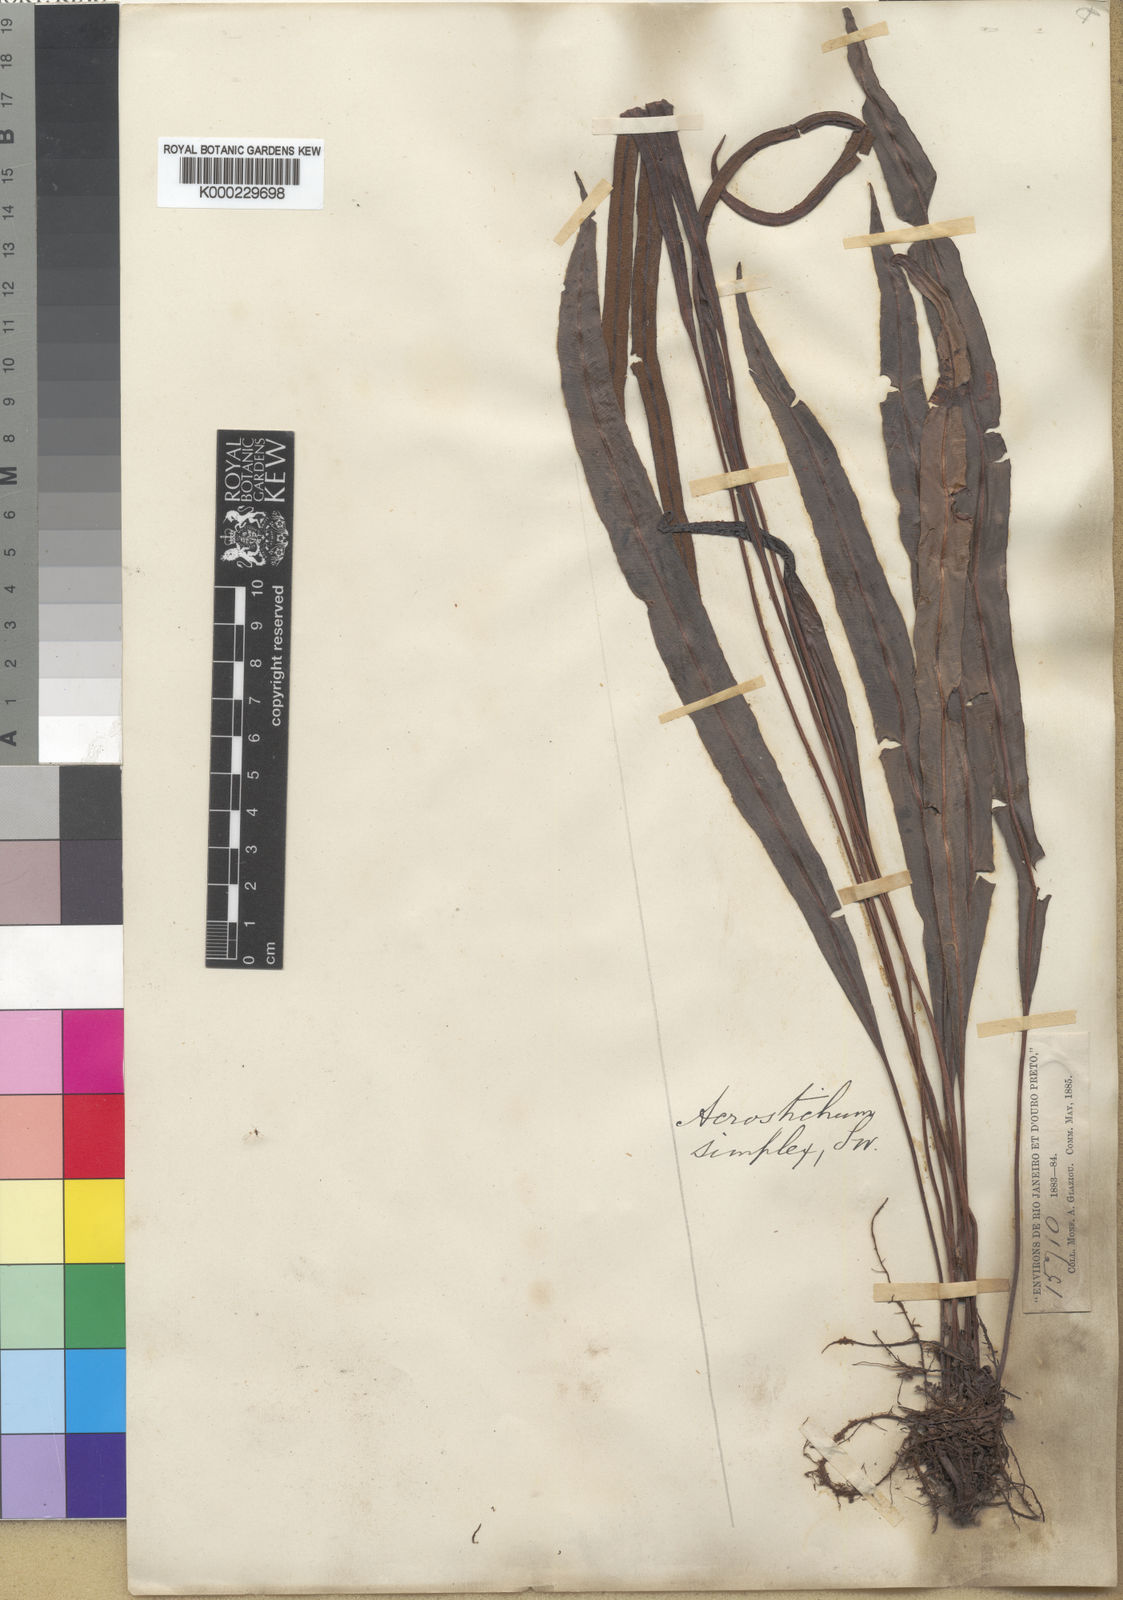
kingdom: Plantae
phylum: Tracheophyta
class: Polypodiopsida
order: Polypodiales
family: Dryopteridaceae
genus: Elaphoglossum
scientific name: Elaphoglossum
